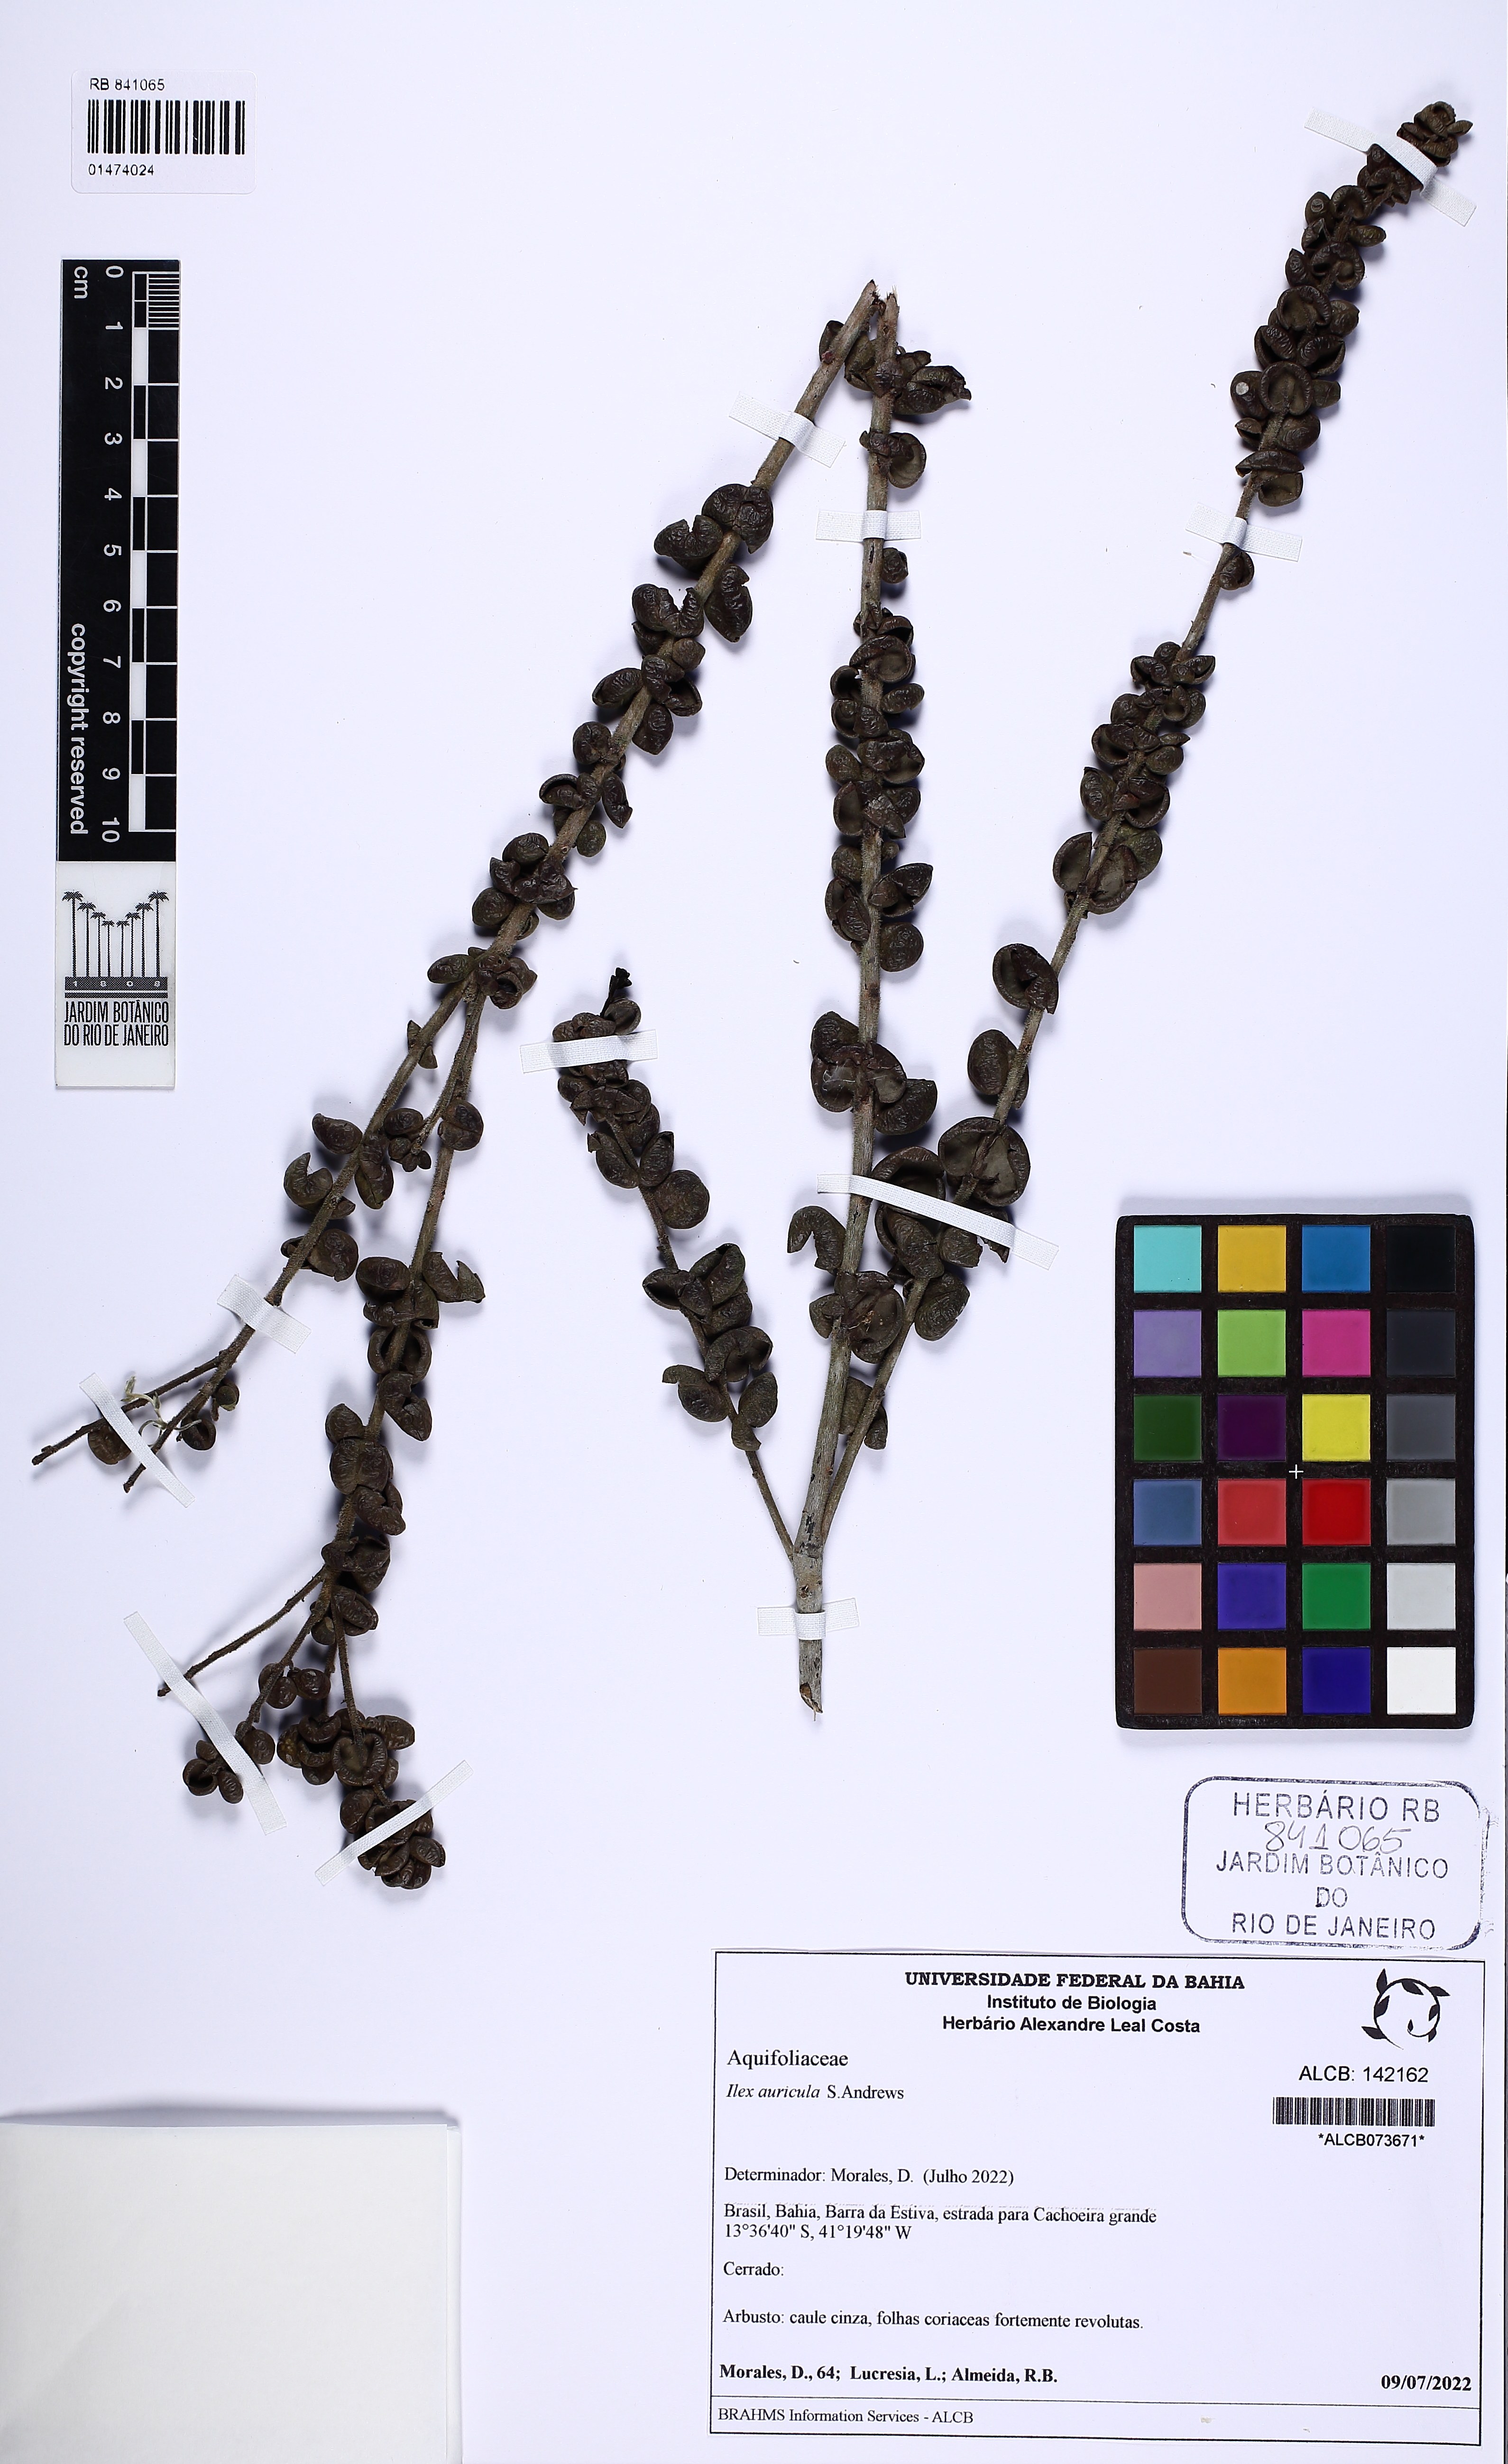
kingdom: Plantae
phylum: Tracheophyta
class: Magnoliopsida
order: Aquifoliales
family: Aquifoliaceae
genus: Ilex
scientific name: Ilex auricula
